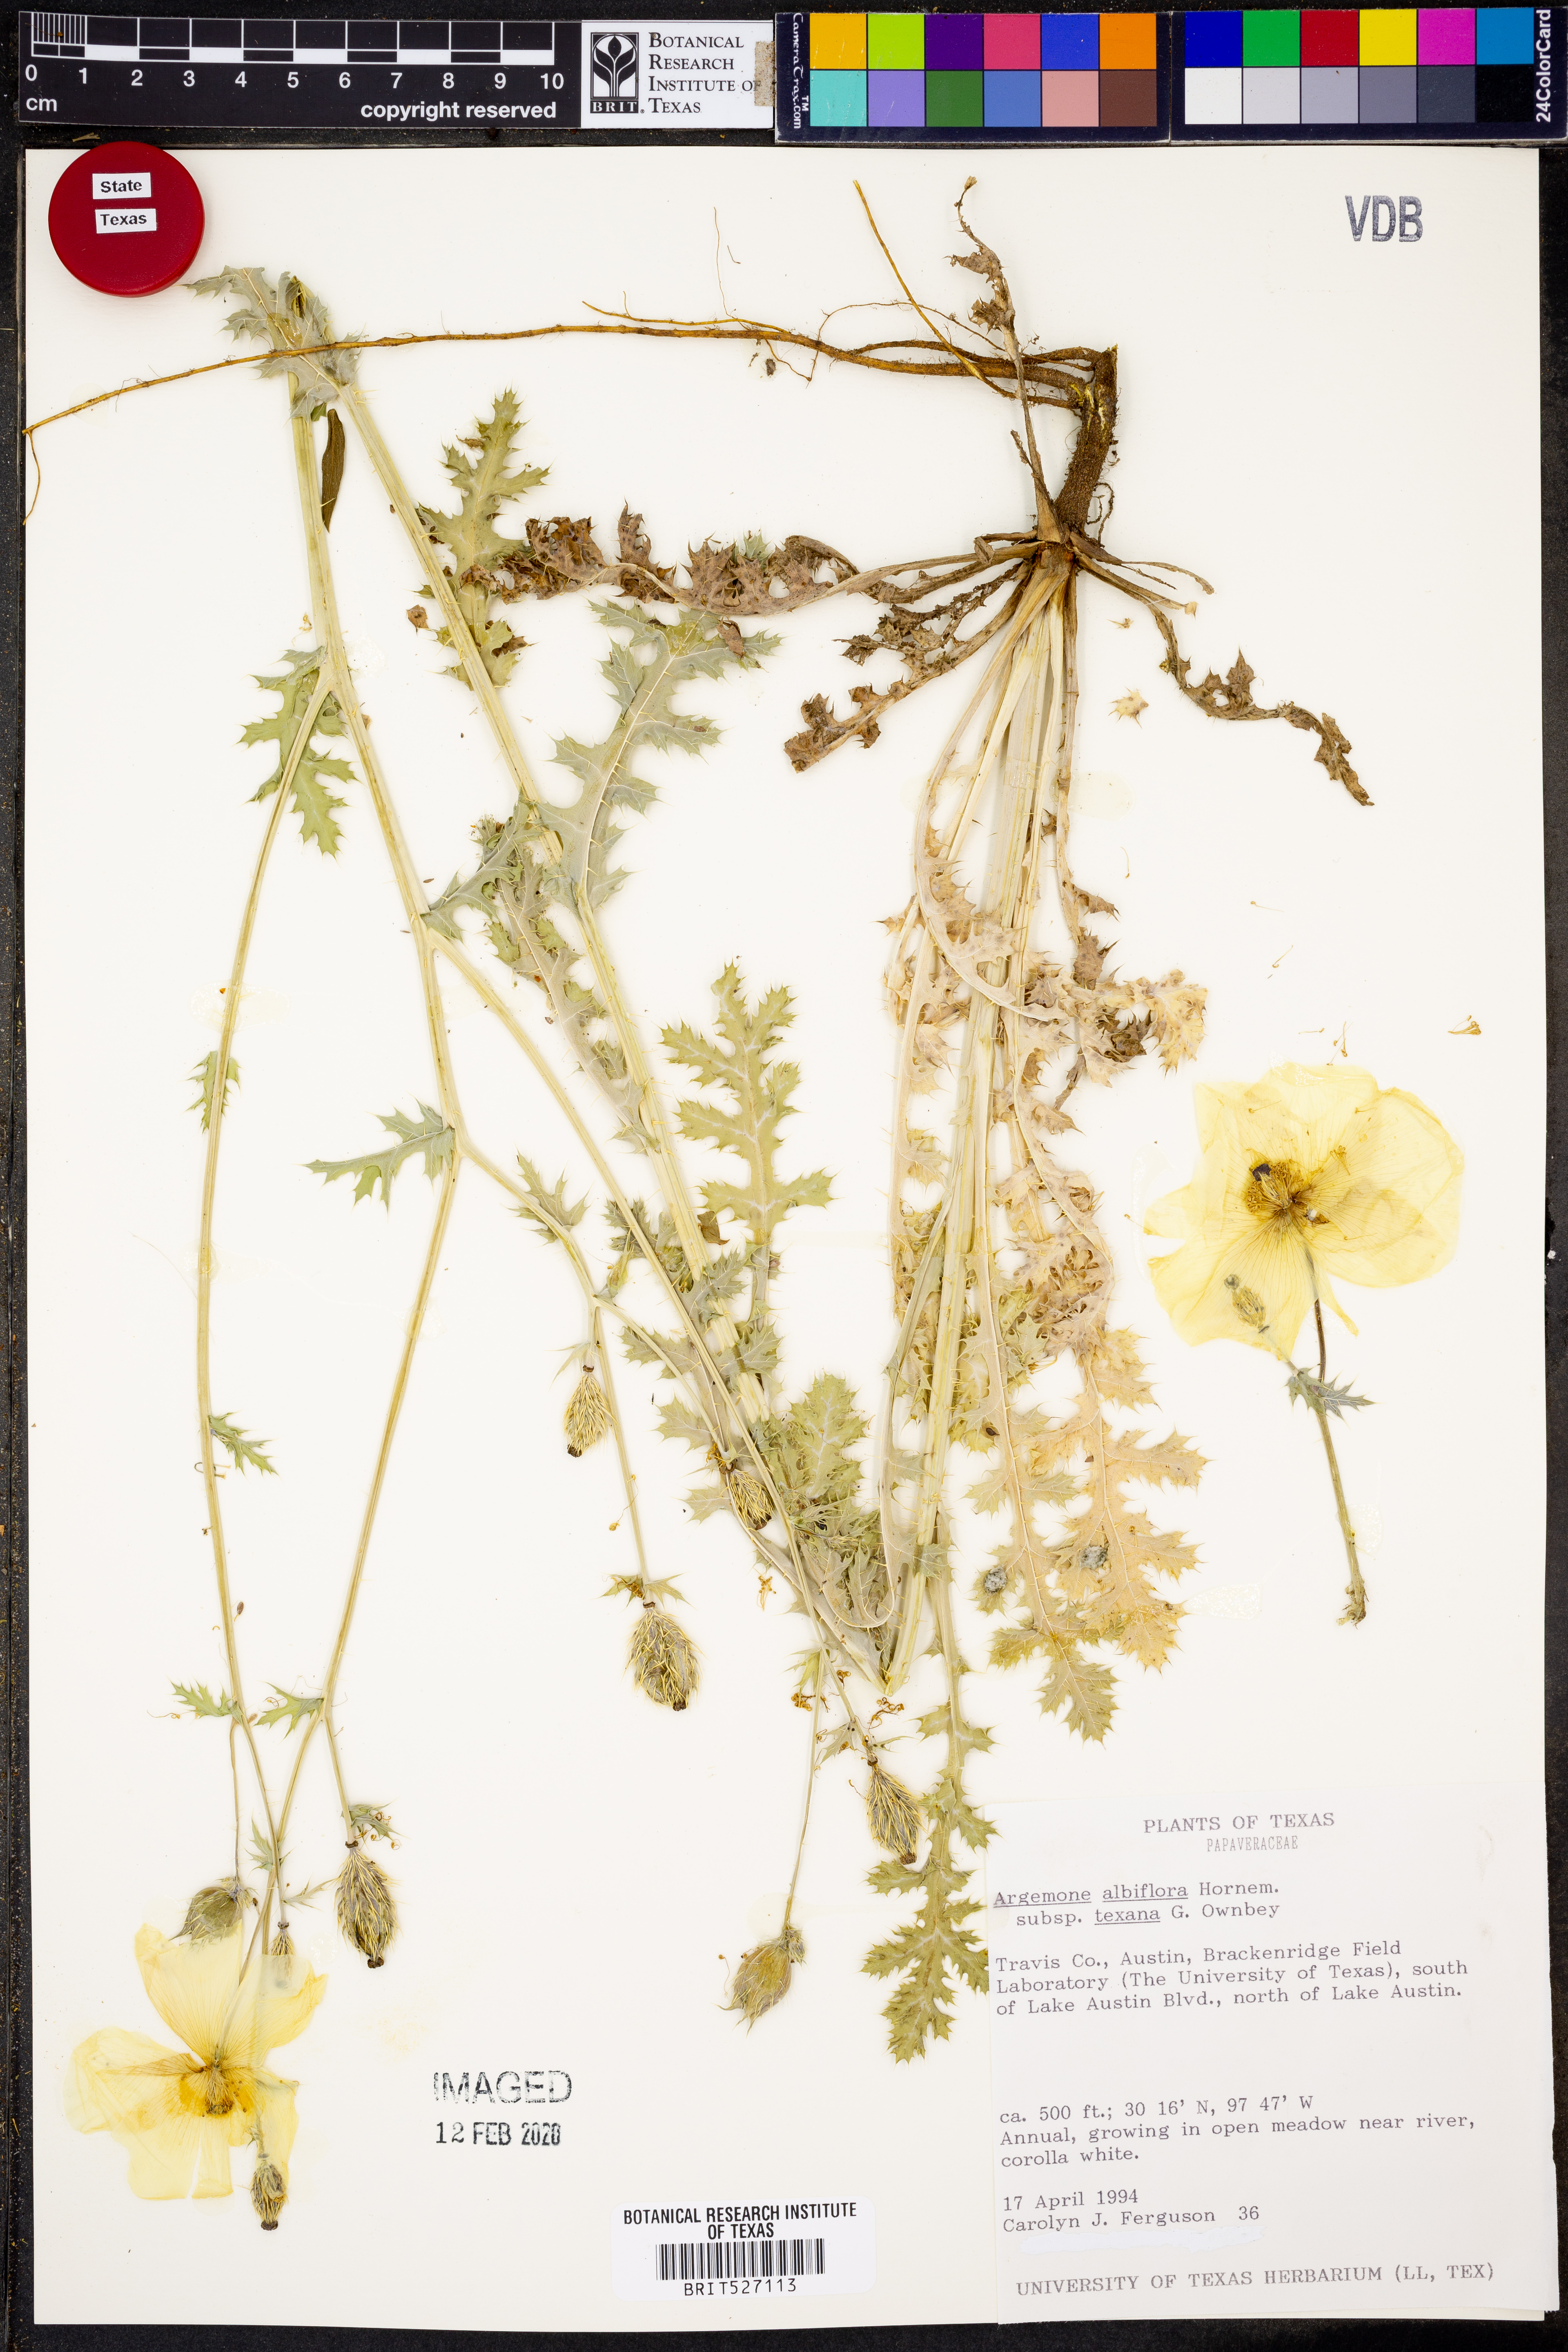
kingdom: Plantae
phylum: Tracheophyta
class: Magnoliopsida
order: Ranunculales
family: Papaveraceae
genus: Argemone
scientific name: Argemone albiflora
